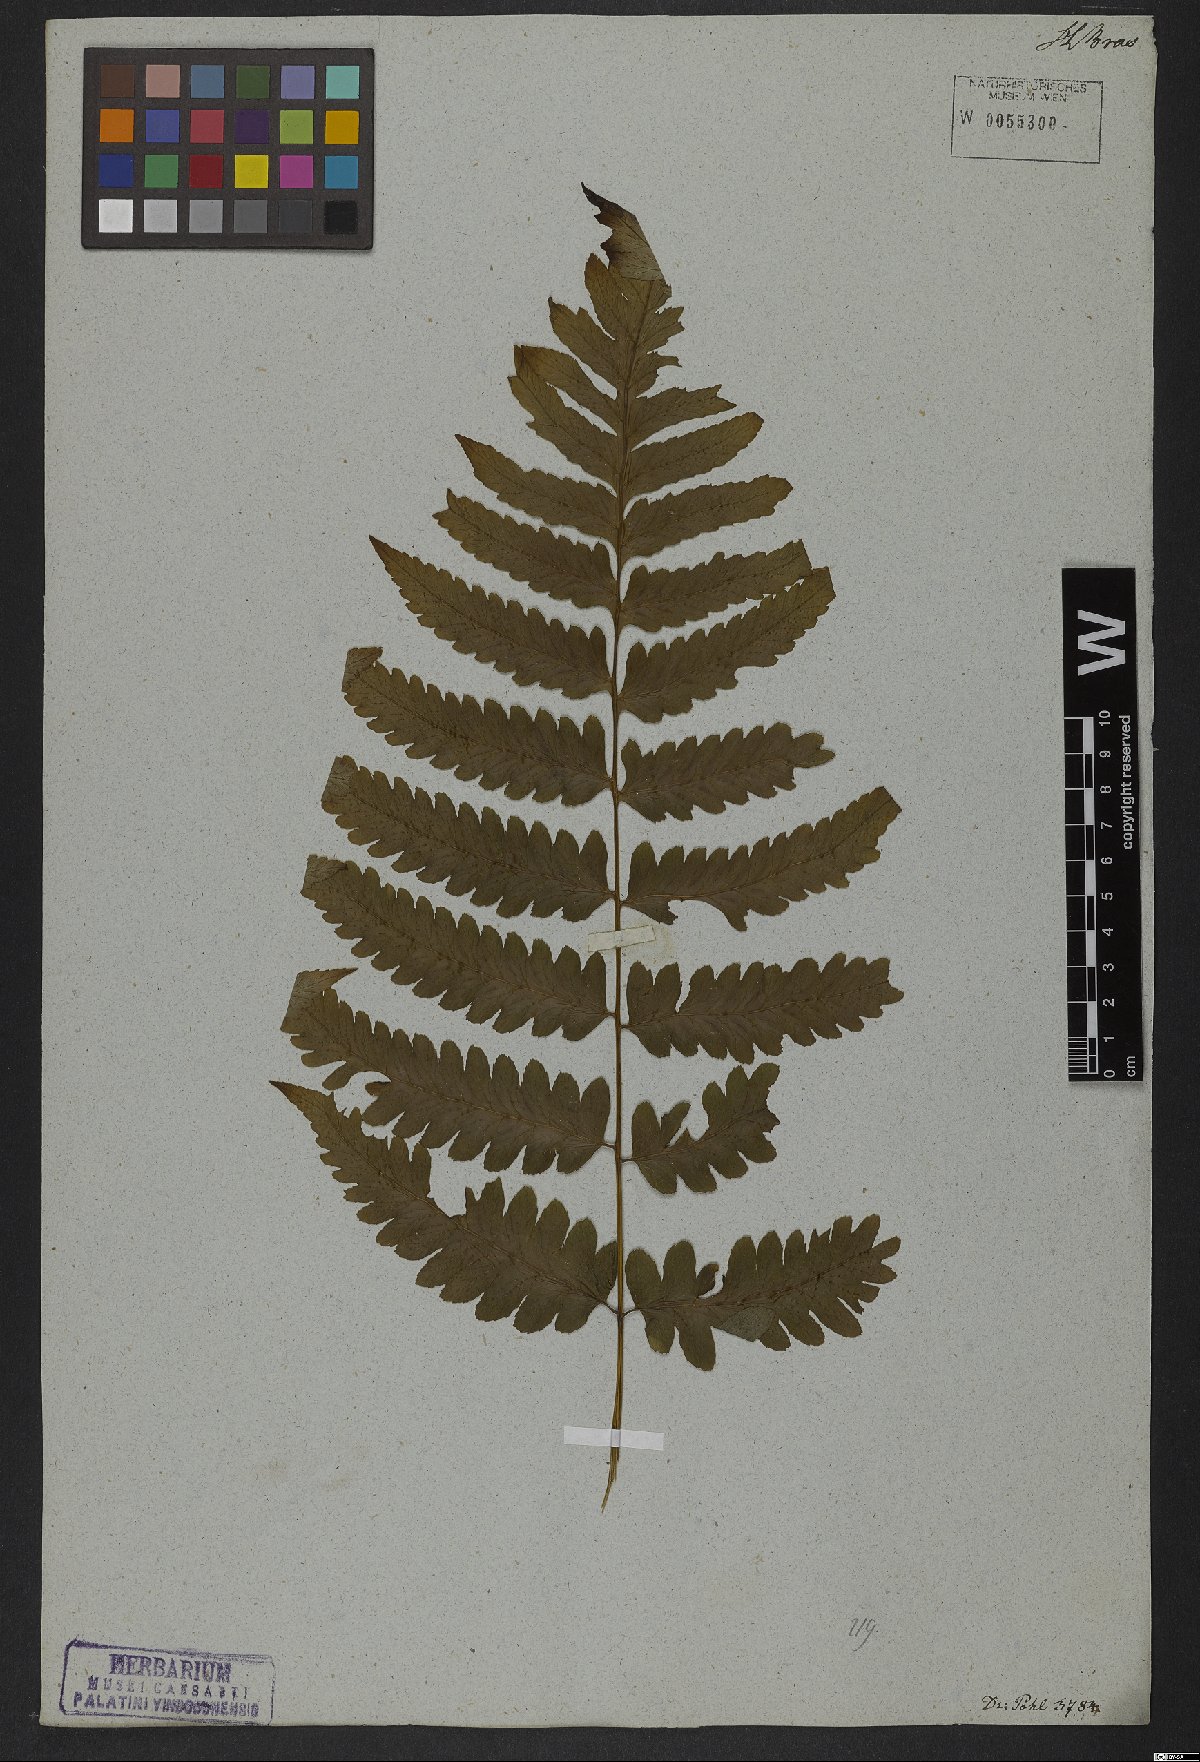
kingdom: Plantae
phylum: Tracheophyta
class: Polypodiopsida
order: Polypodiales
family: Athyriaceae
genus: Diplazium
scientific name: Diplazium cristatum
